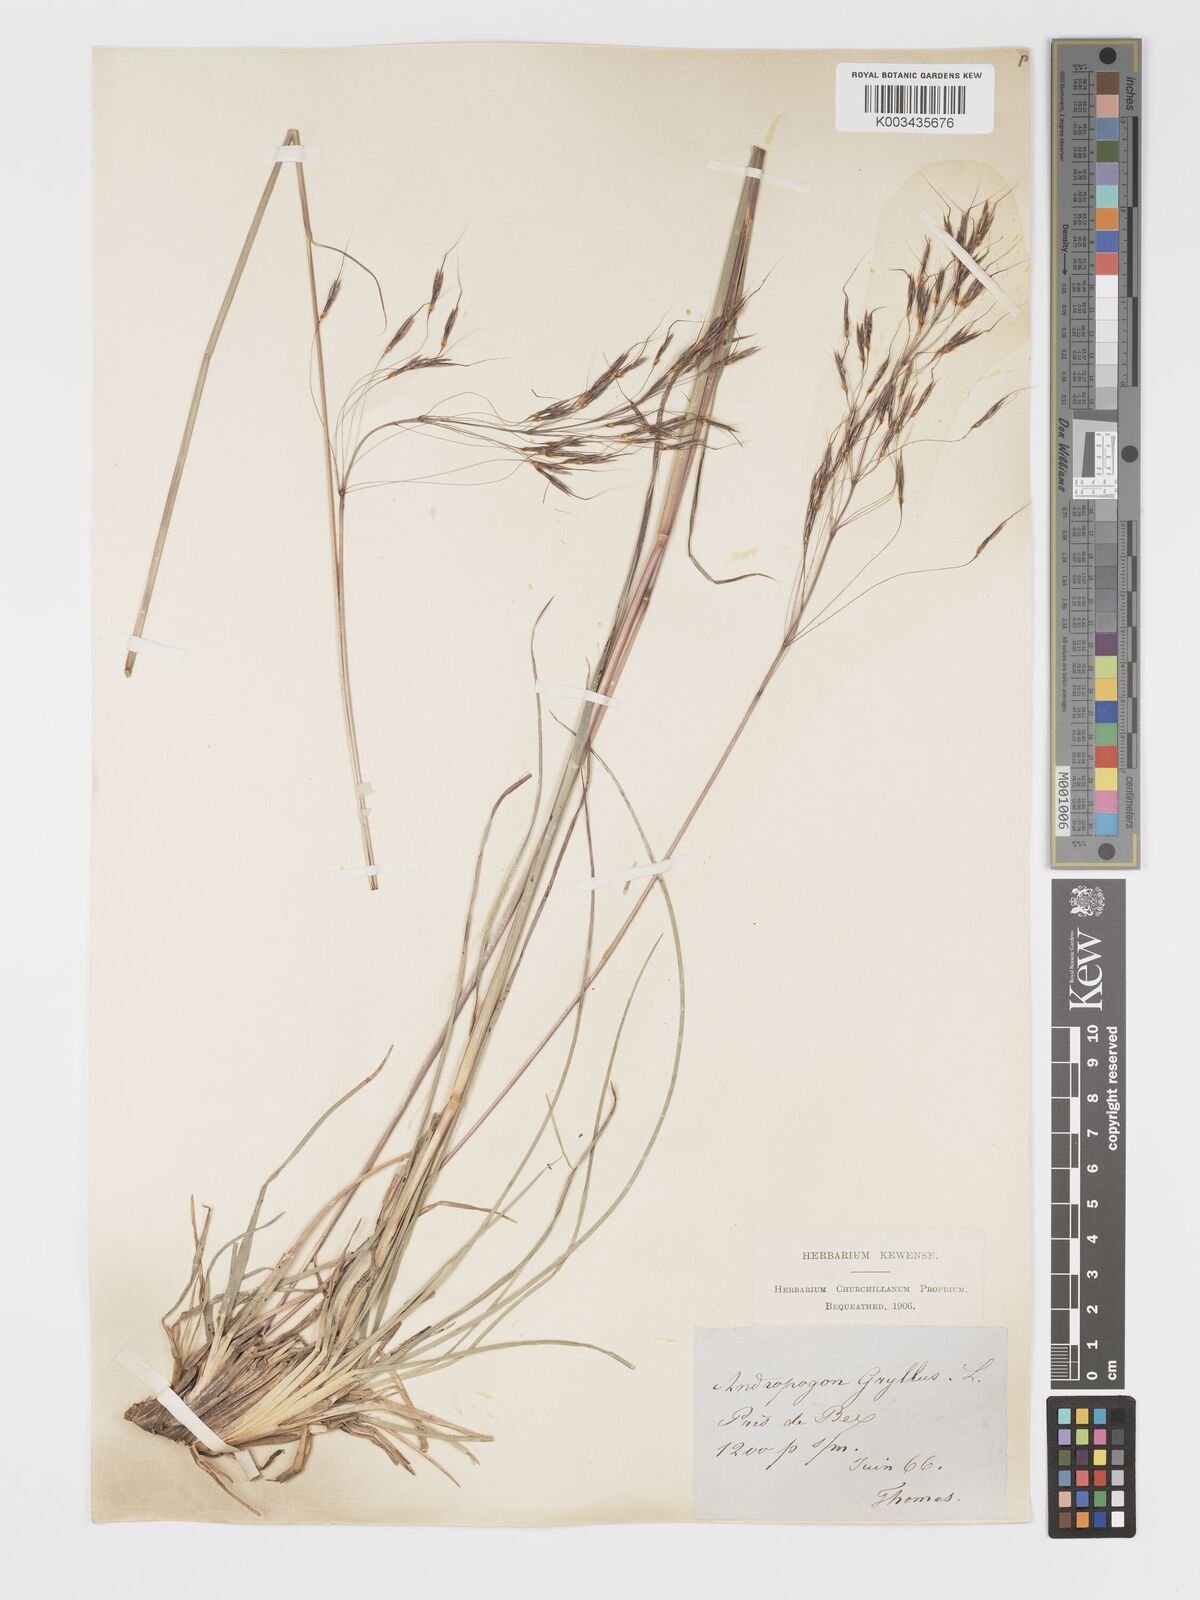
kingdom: Plantae
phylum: Tracheophyta
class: Liliopsida
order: Poales
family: Poaceae
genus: Chrysopogon
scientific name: Chrysopogon gryllus
